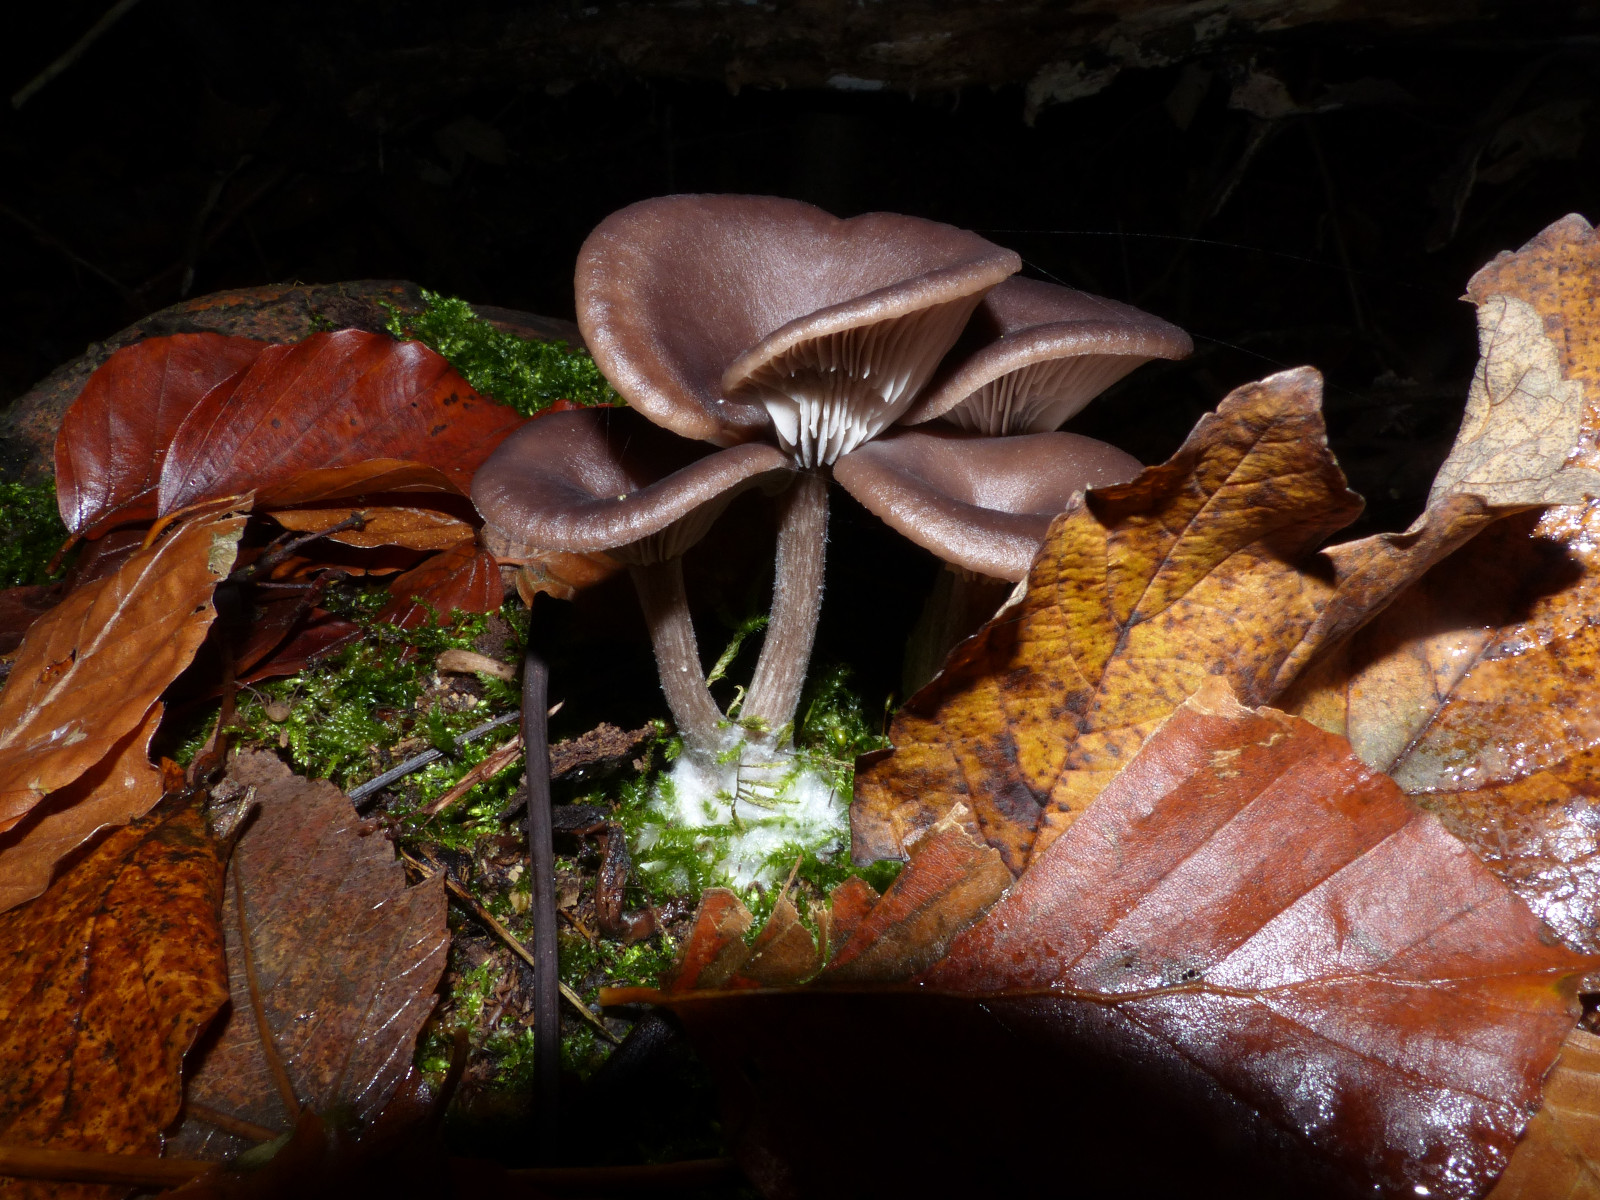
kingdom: Fungi
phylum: Basidiomycota
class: Agaricomycetes
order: Agaricales
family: Pseudoclitocybaceae
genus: Pseudoclitocybe
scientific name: Pseudoclitocybe cyathiformis
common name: almindelig bægertragthat
